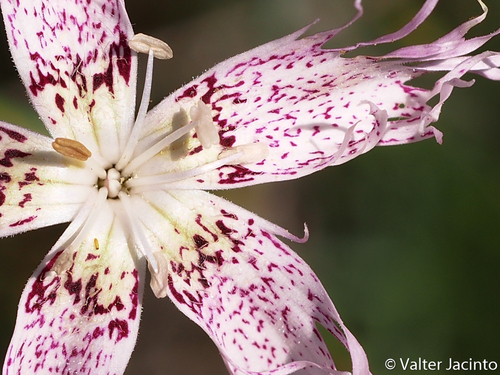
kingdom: Plantae
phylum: Tracheophyta
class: Magnoliopsida
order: Caryophyllales
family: Caryophyllaceae
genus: Dianthus
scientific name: Dianthus broteri
